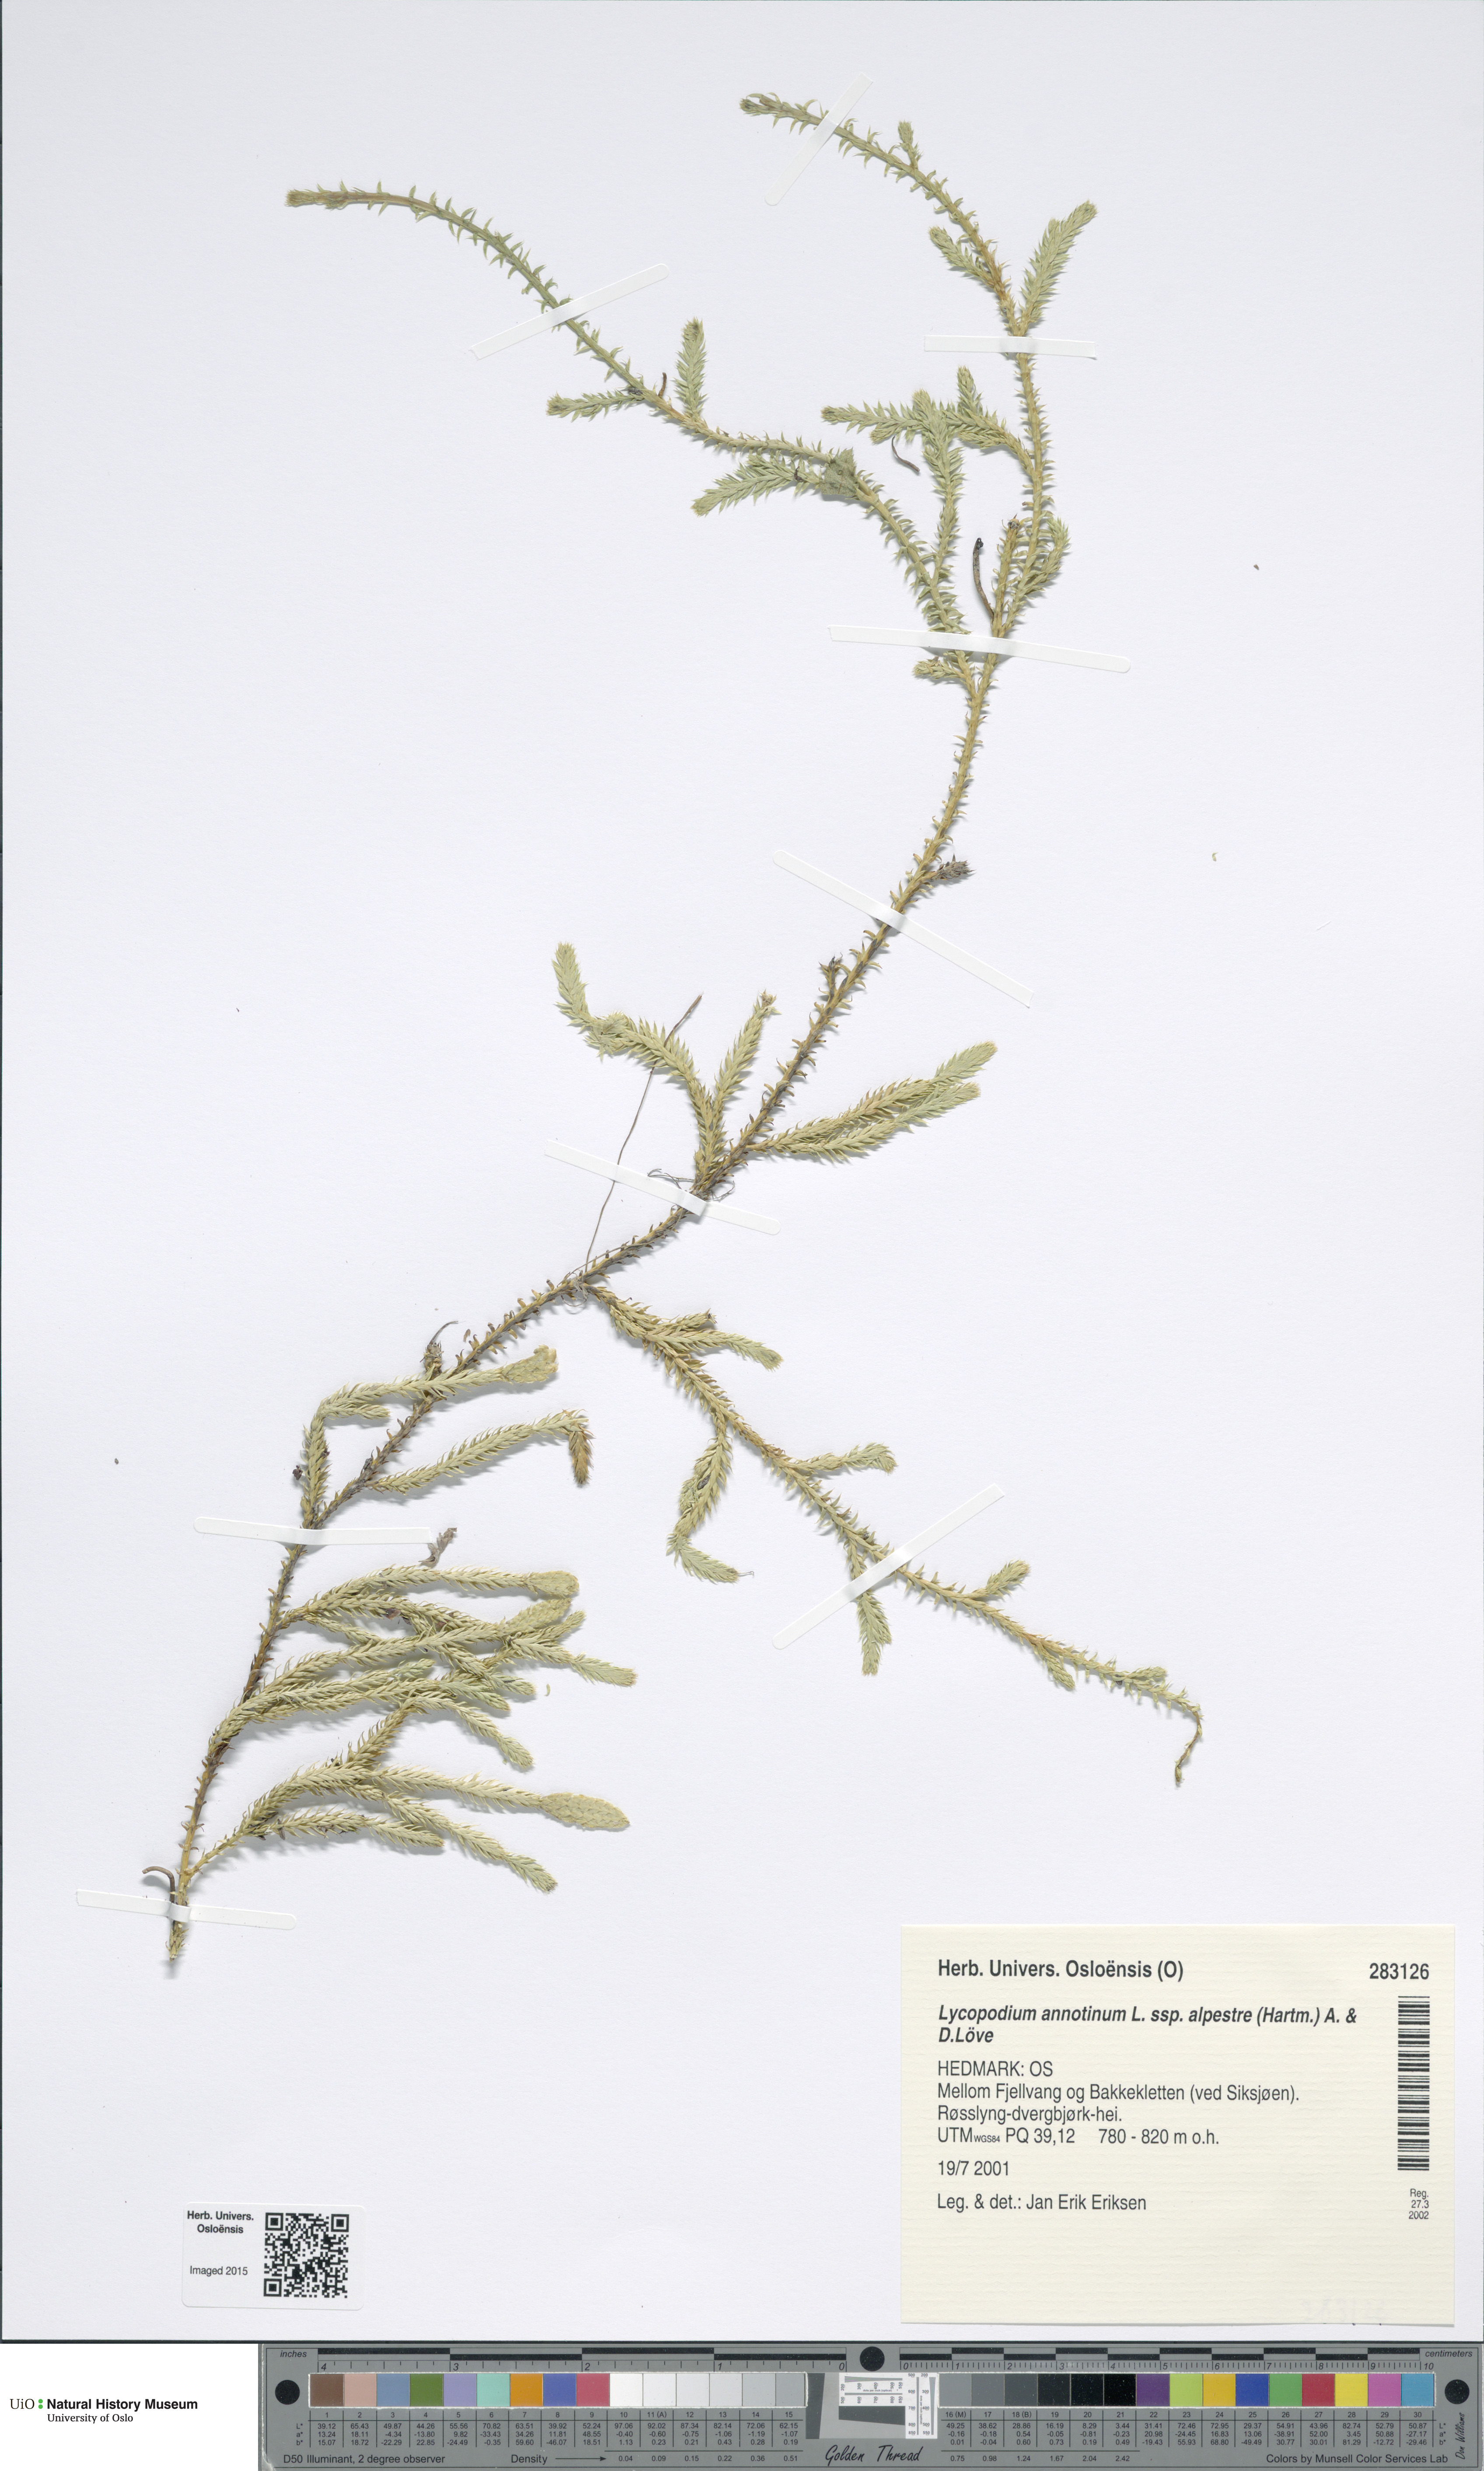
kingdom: Plantae
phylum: Tracheophyta
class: Lycopodiopsida
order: Lycopodiales
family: Lycopodiaceae
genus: Spinulum
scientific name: Spinulum annotinum
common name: Interrupted club-moss
